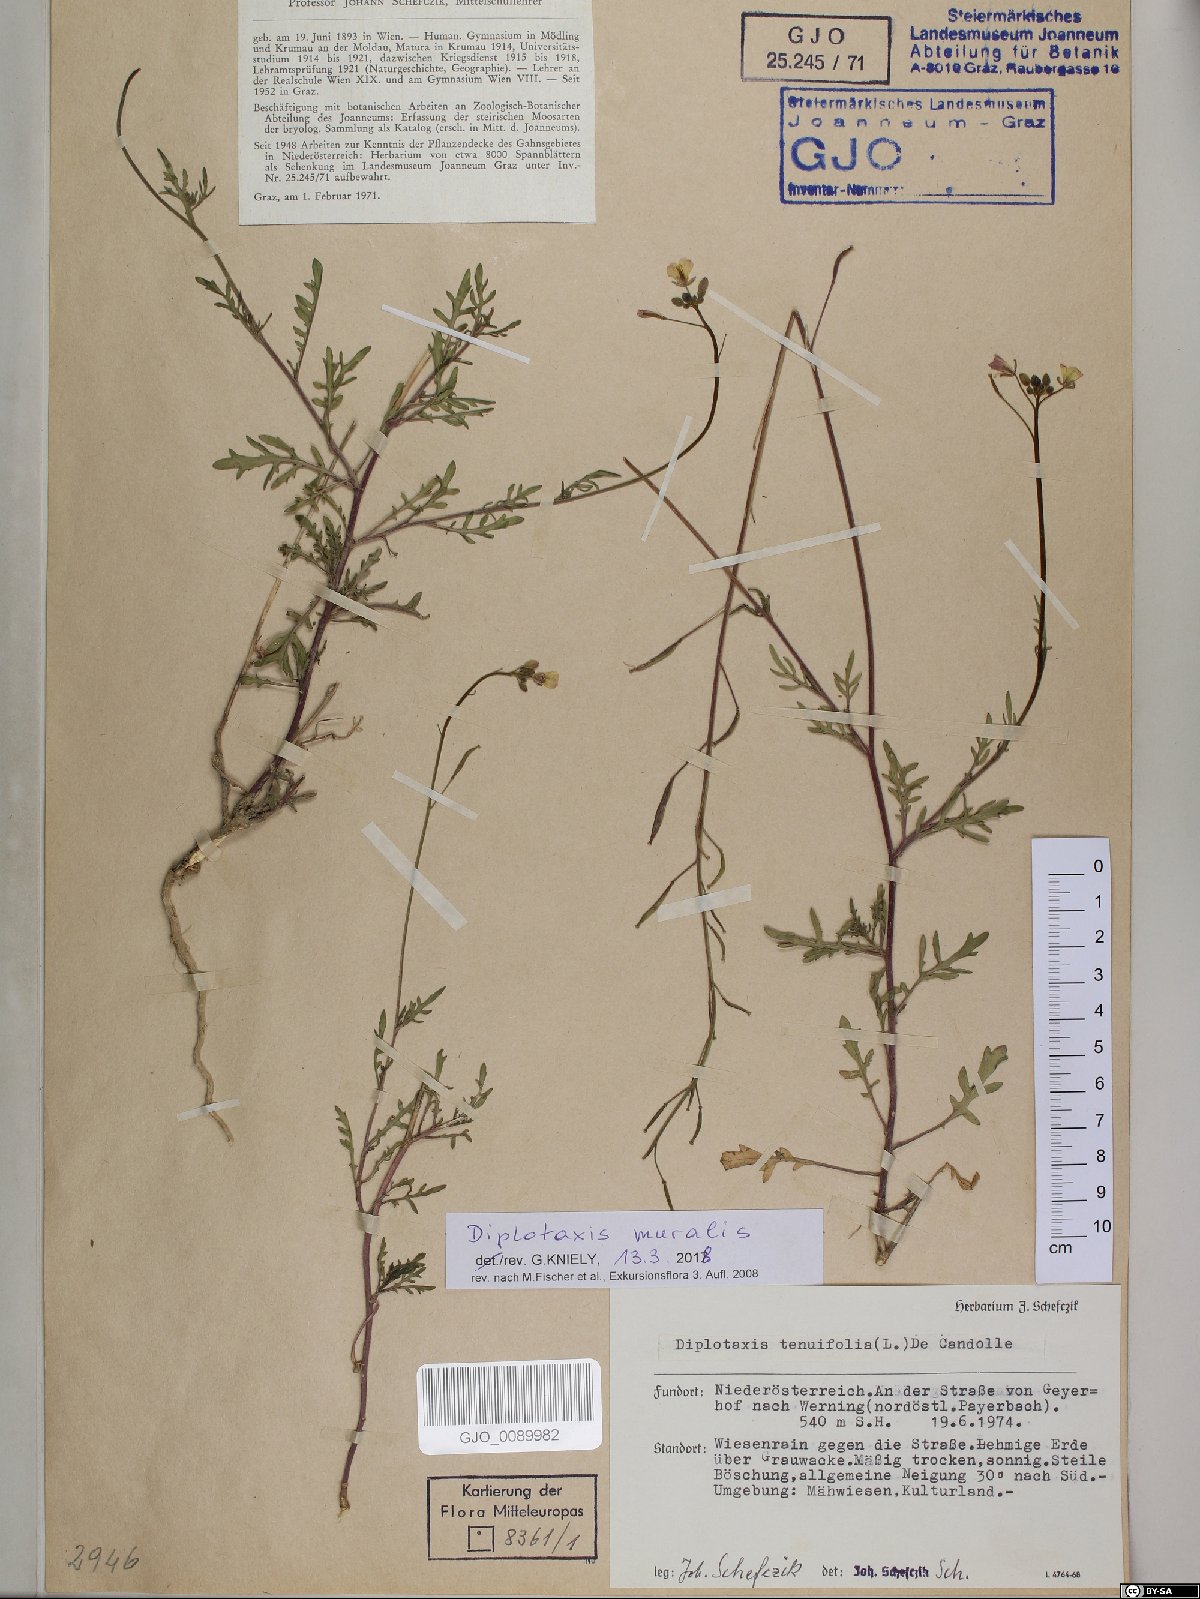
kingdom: Plantae
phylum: Tracheophyta
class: Magnoliopsida
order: Brassicales
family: Brassicaceae
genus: Diplotaxis
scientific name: Diplotaxis muralis
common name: Annual wall-rocket
